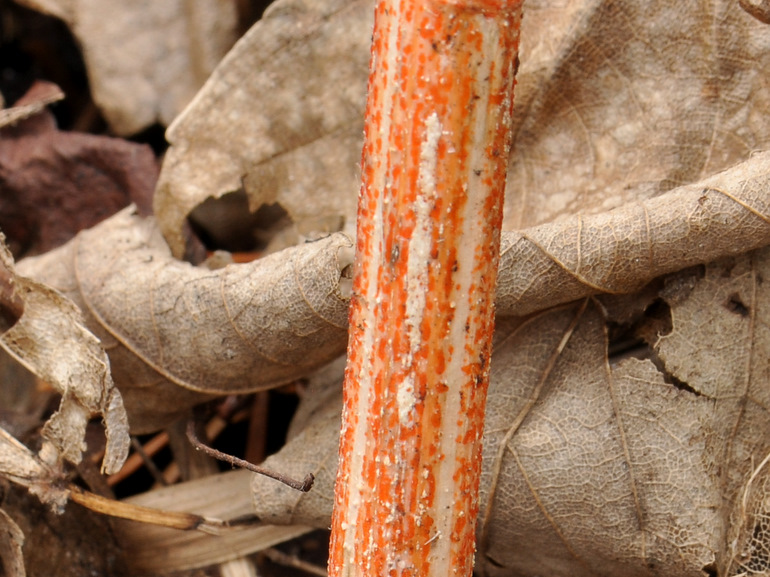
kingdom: Fungi
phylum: Ascomycota
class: Leotiomycetes
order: Helotiales
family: Calloriaceae
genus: Calloria
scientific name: Calloria urticae
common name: nælde-orangeskive
